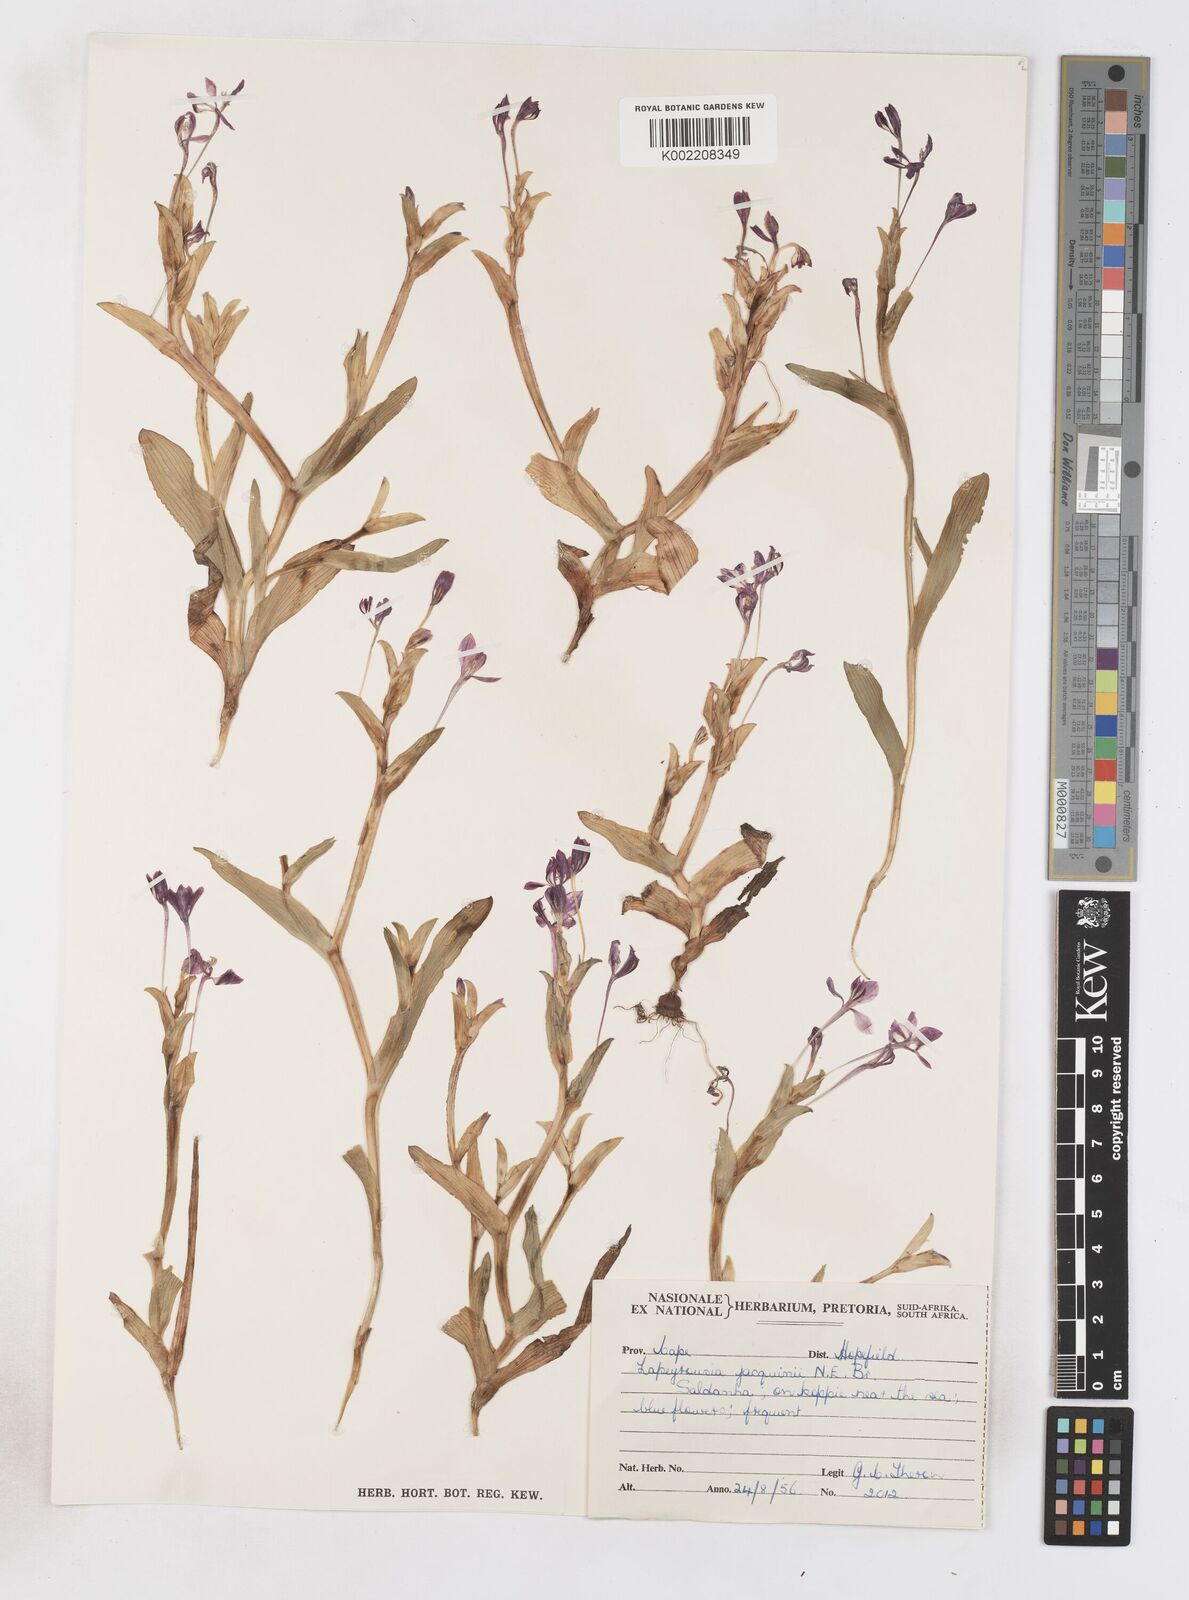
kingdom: Plantae
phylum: Tracheophyta
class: Liliopsida
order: Asparagales
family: Iridaceae
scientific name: Iridaceae
